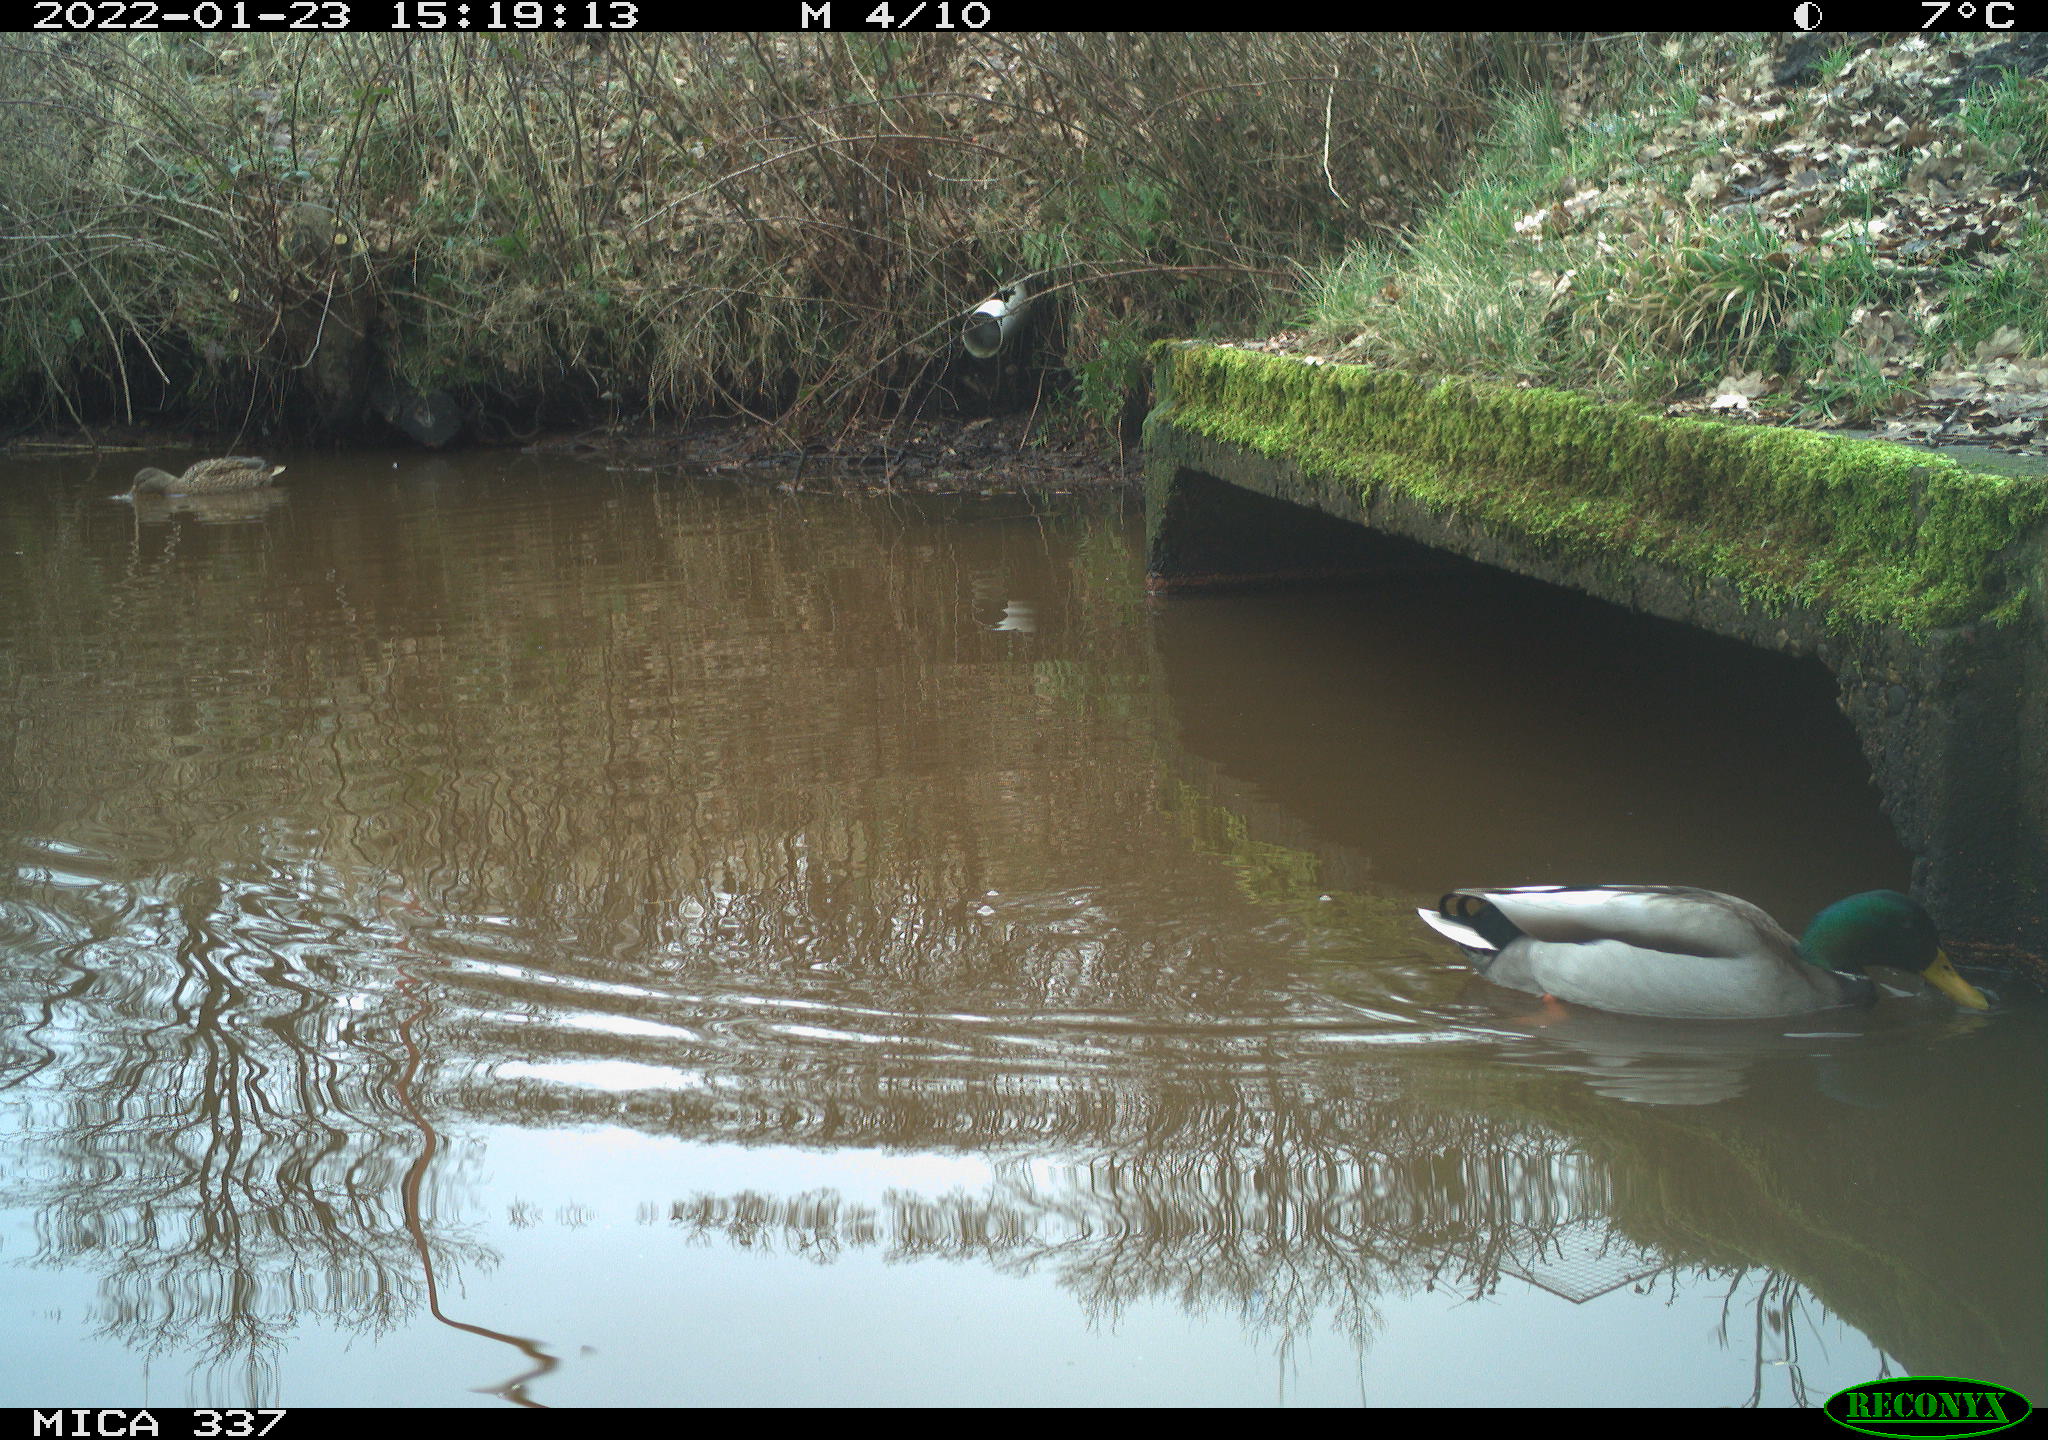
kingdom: Animalia
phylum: Chordata
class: Aves
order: Anseriformes
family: Anatidae
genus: Anas
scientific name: Anas platyrhynchos
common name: Mallard
